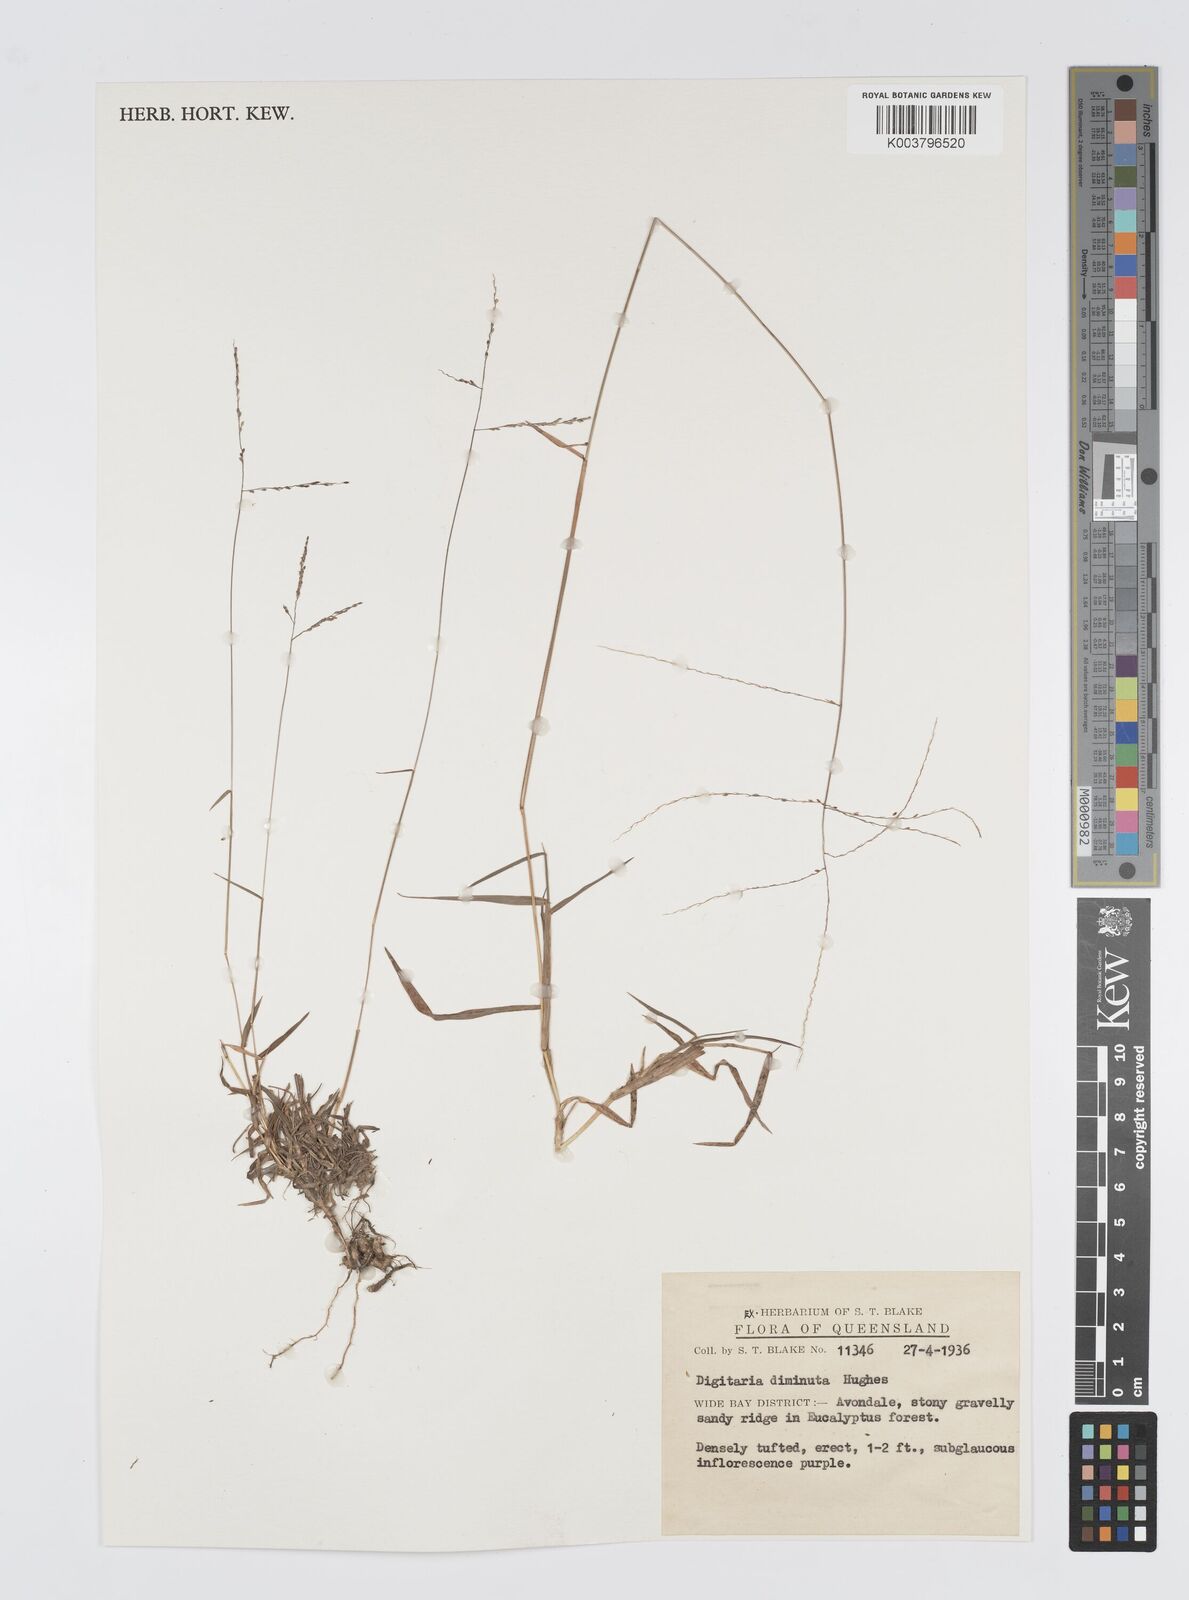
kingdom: Plantae
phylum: Tracheophyta
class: Liliopsida
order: Poales
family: Poaceae
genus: Digitaria
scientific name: Digitaria breviglumis
